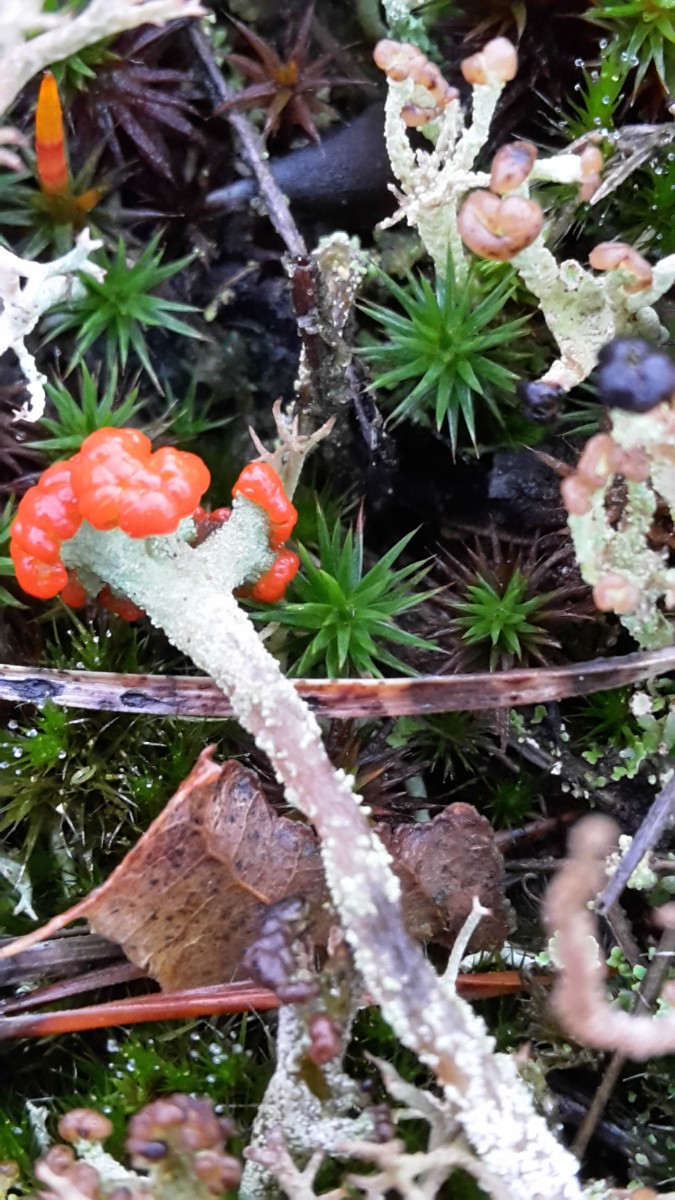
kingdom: Fungi
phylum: Ascomycota
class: Lecanoromycetes
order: Lecanorales
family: Cladoniaceae
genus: Cladonia
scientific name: Cladonia floerkeana
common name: lakrød bægerlav
